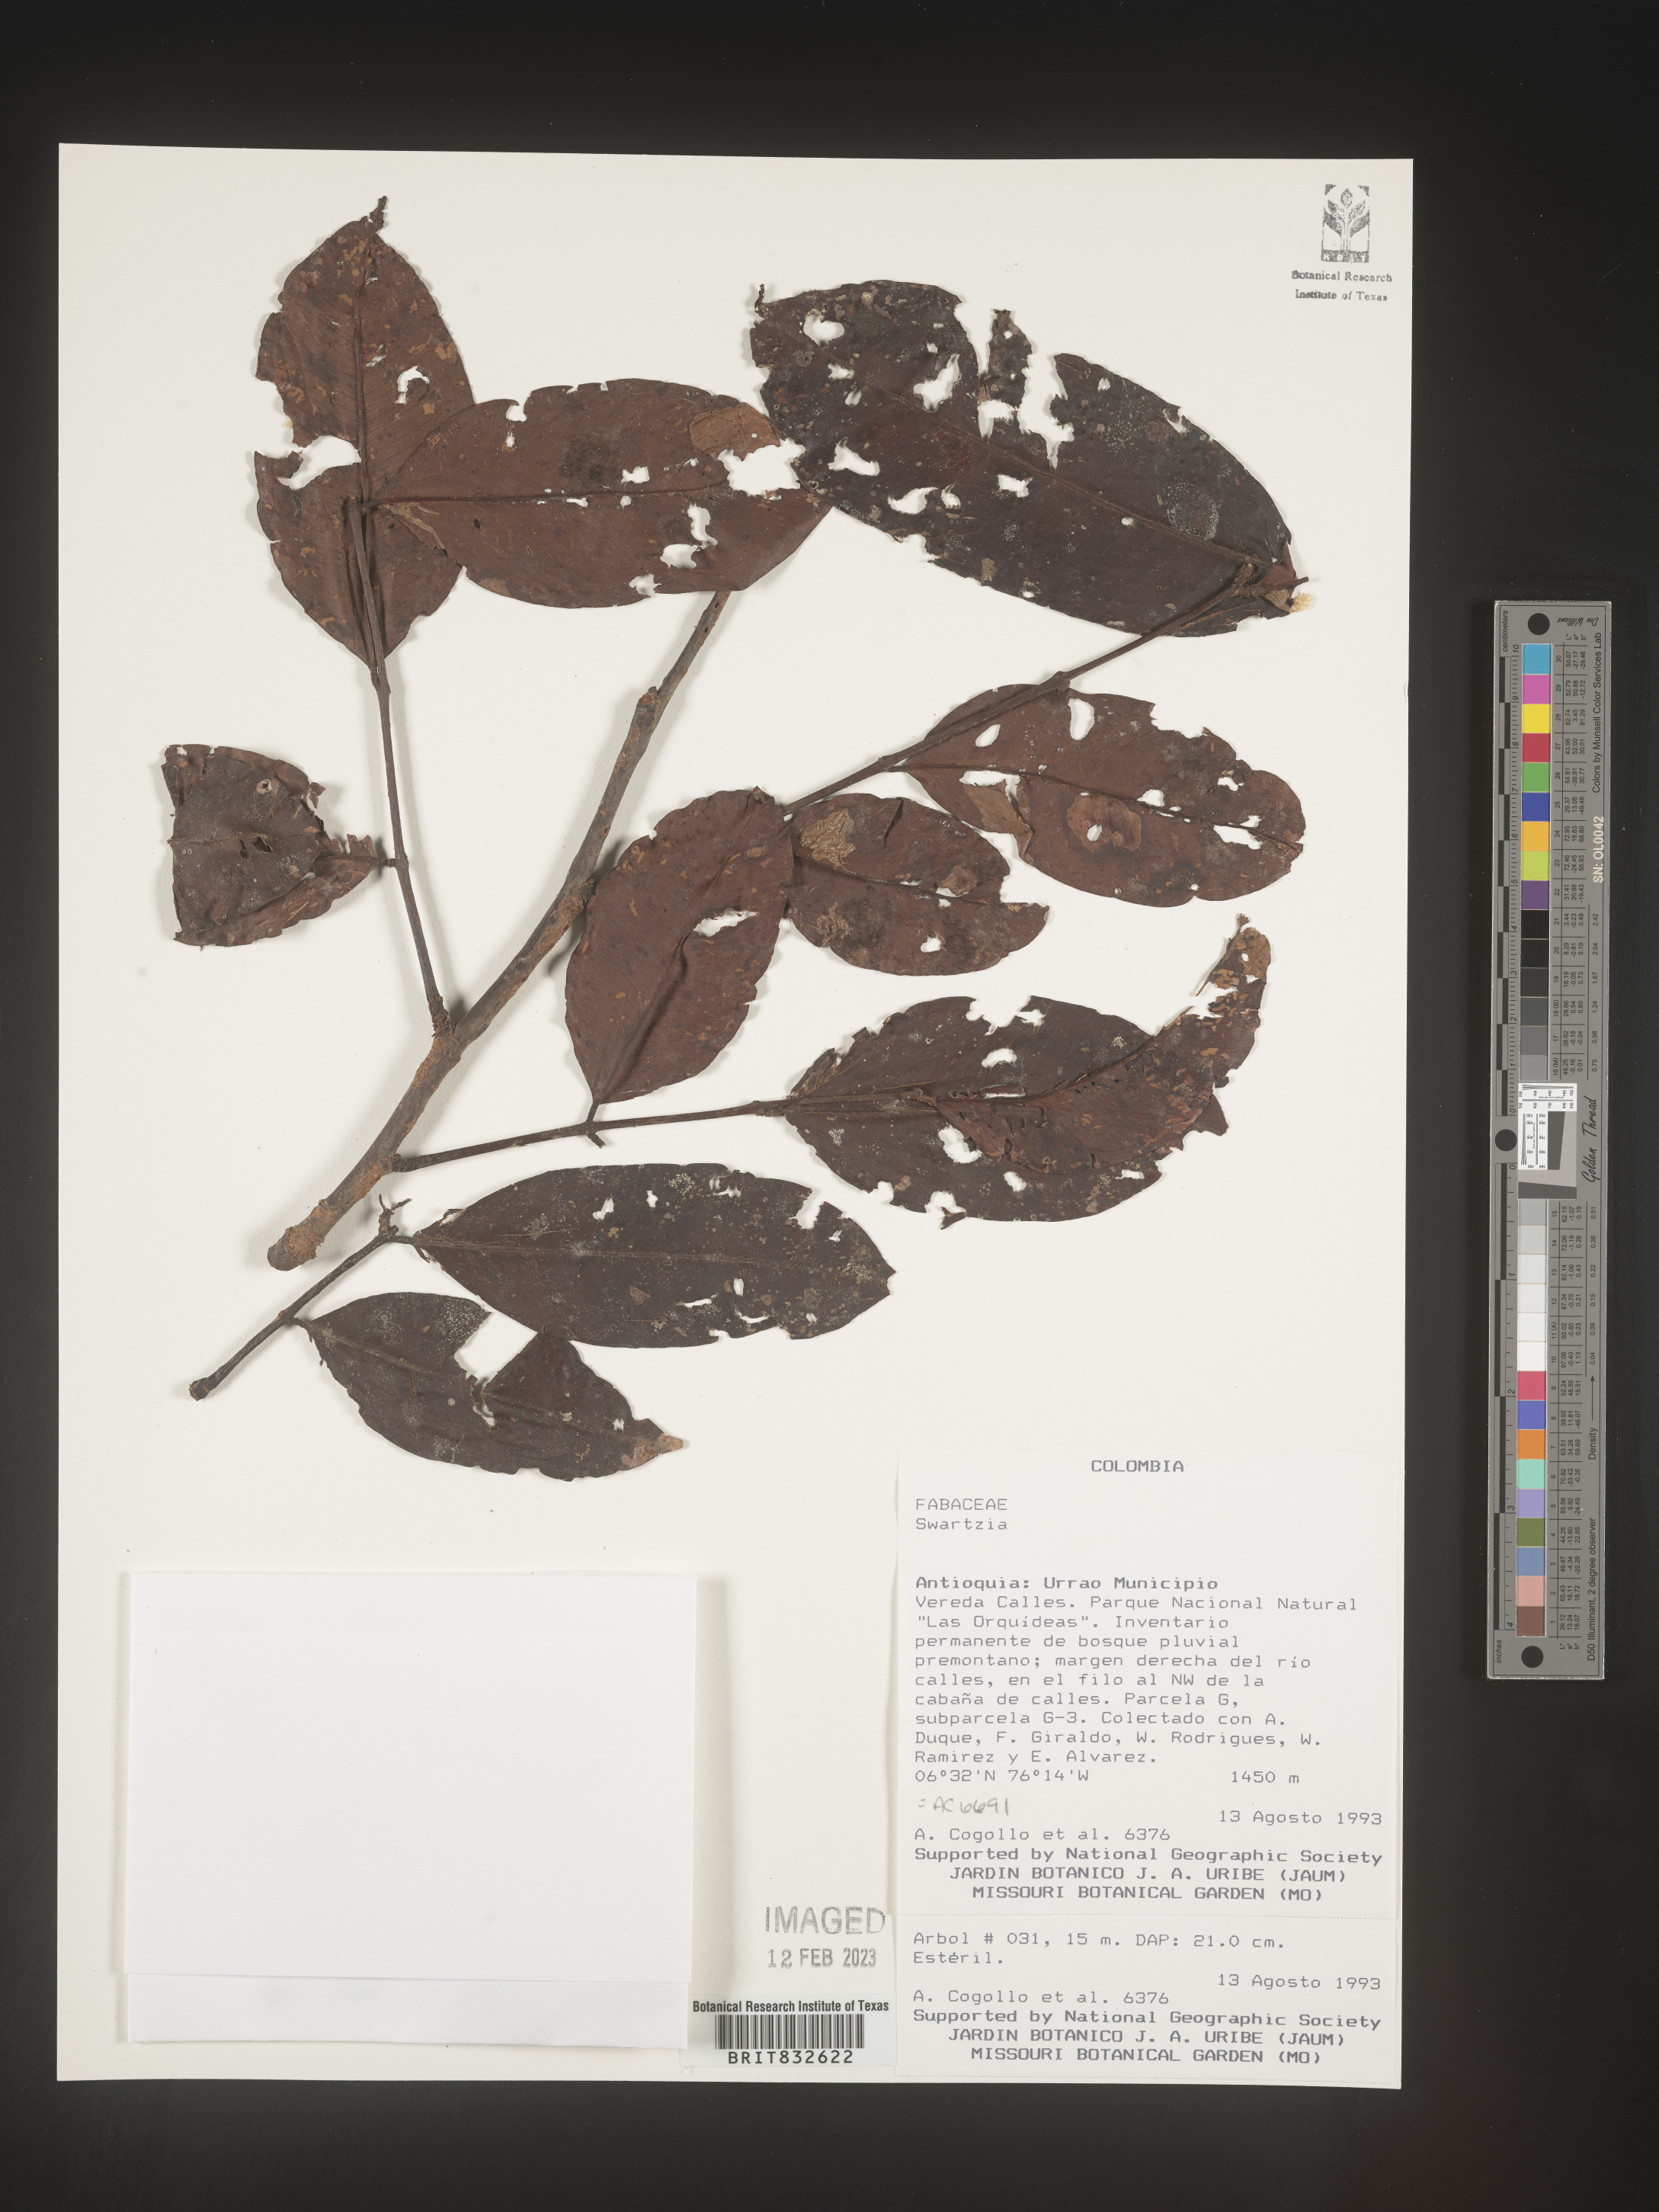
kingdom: Plantae
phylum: Tracheophyta
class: Magnoliopsida
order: Fabales
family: Fabaceae
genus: Swartzia
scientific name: Swartzia
